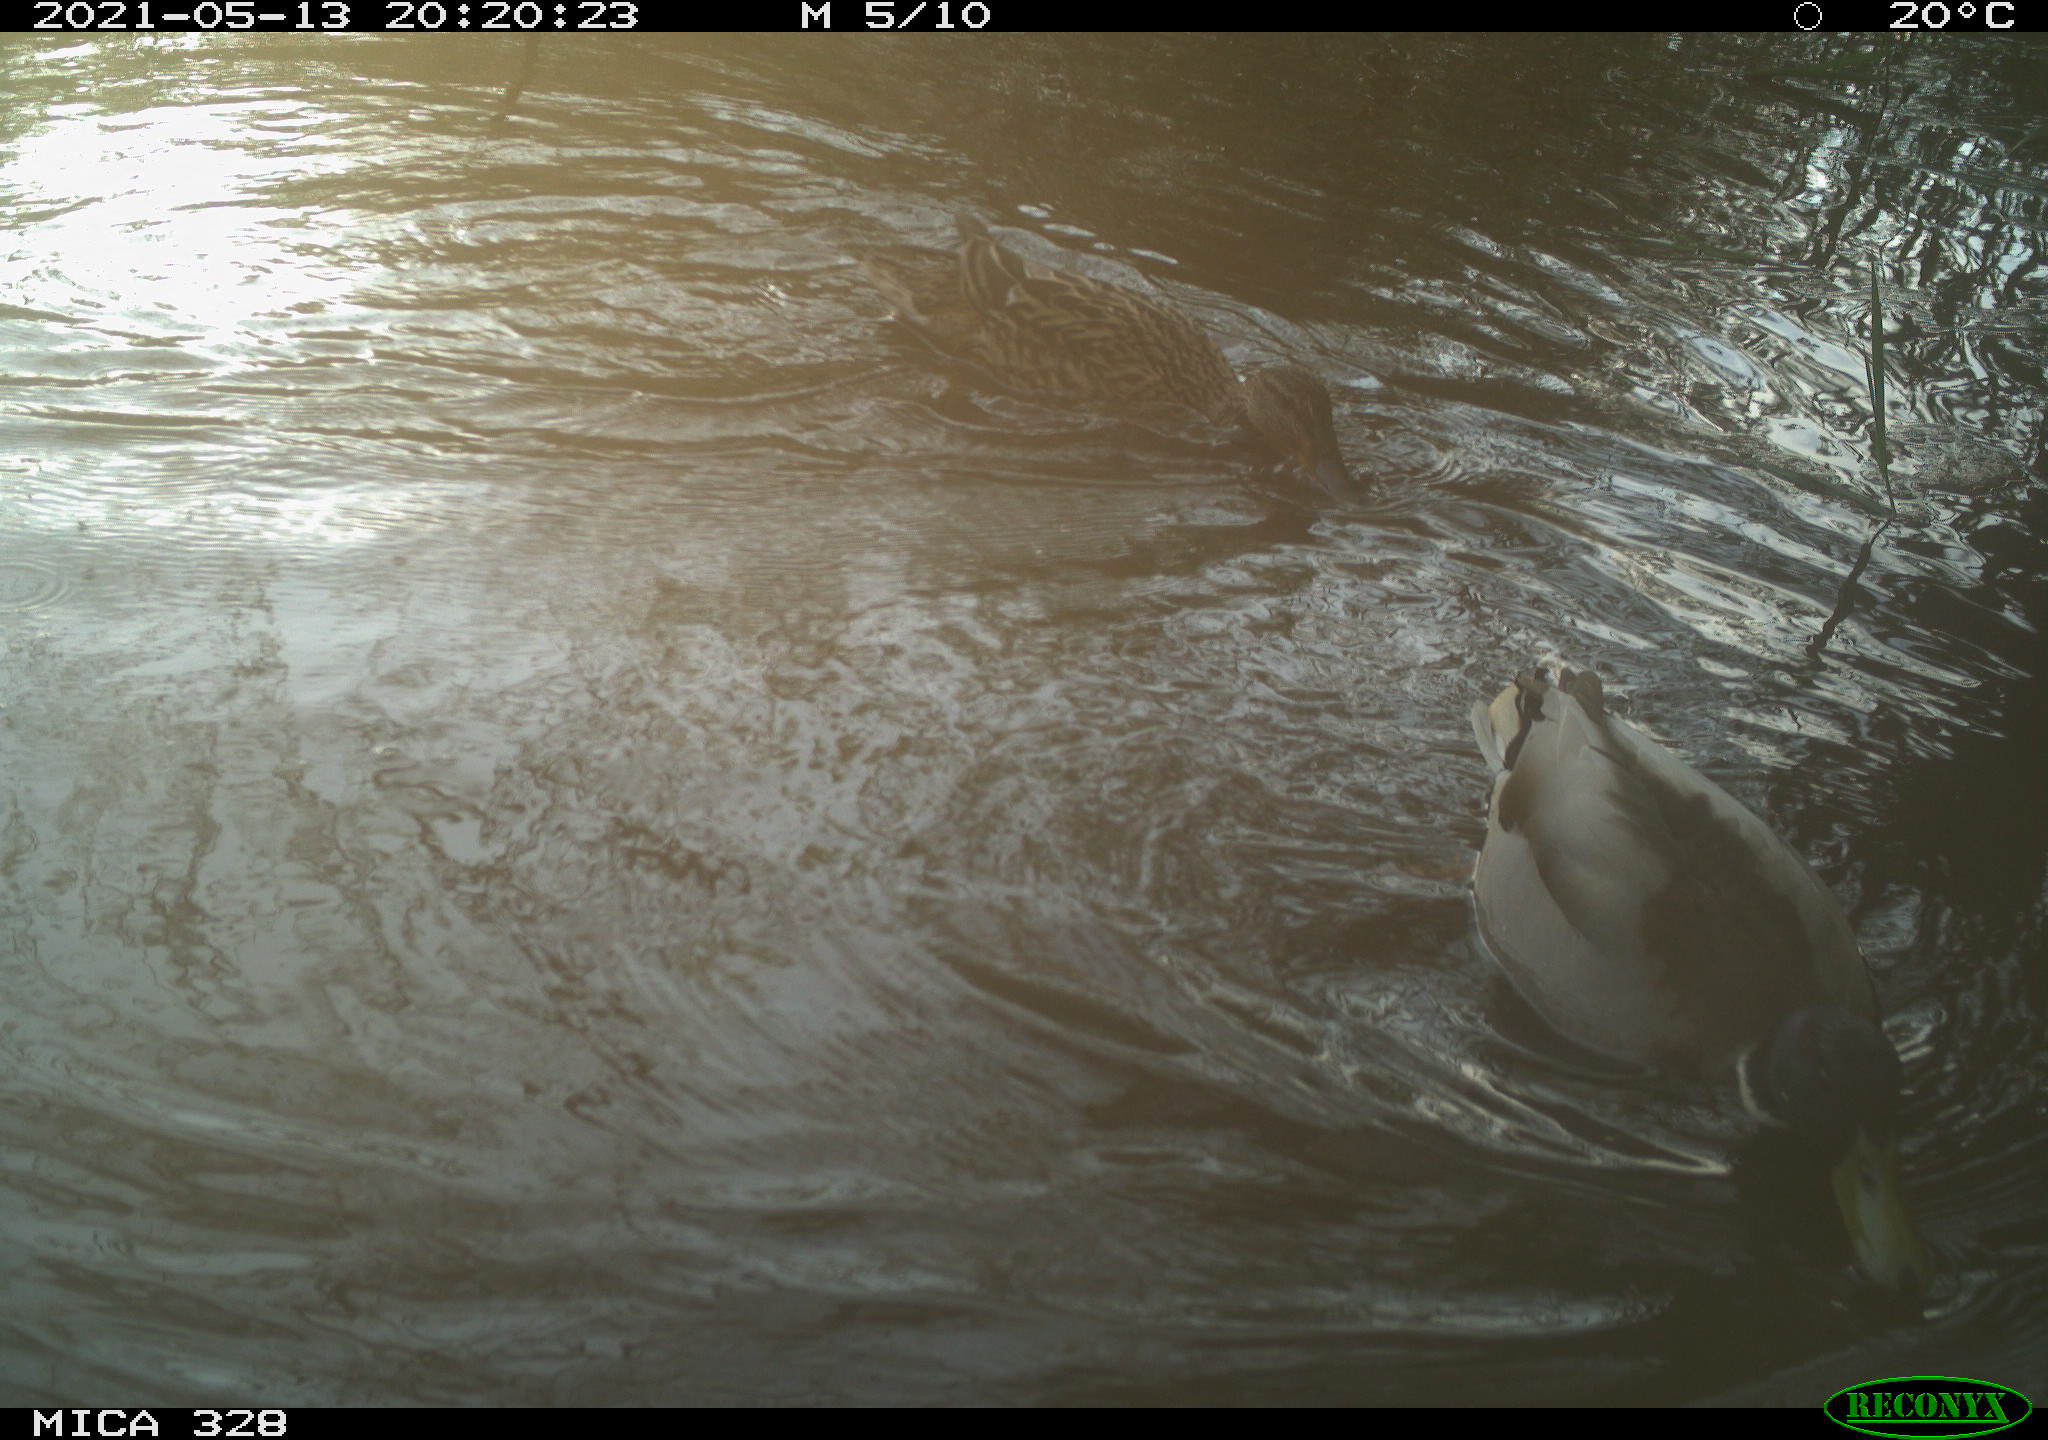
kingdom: Animalia
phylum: Chordata
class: Aves
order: Anseriformes
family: Anatidae
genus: Anas
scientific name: Anas platyrhynchos
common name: Mallard
